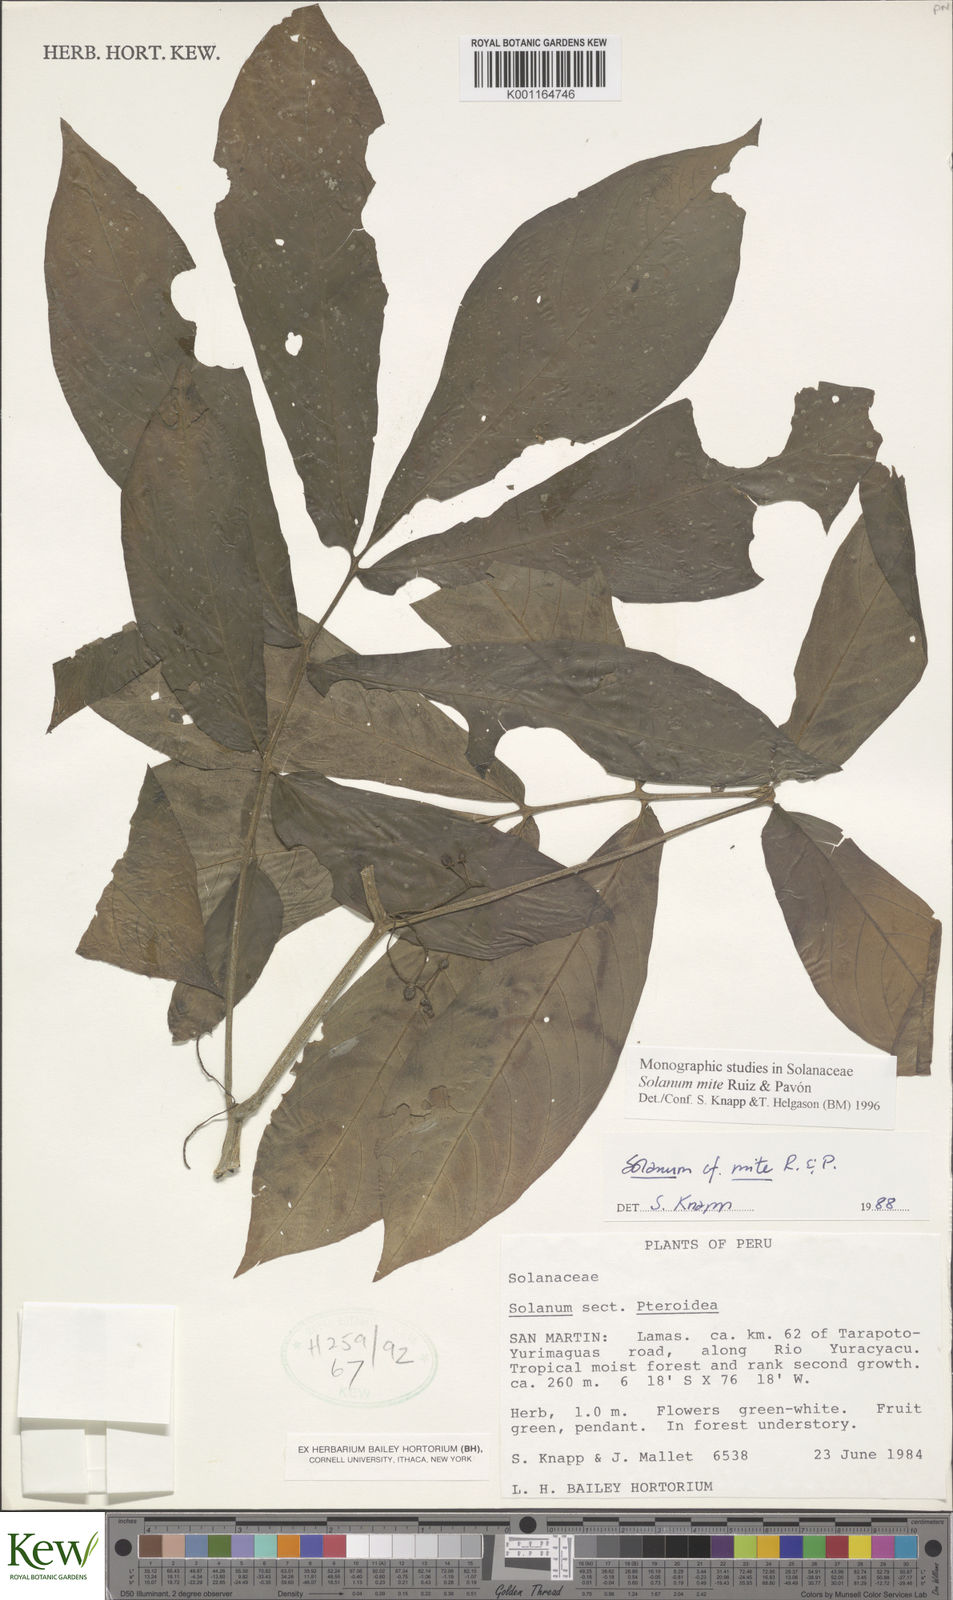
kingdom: Plantae
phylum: Tracheophyta
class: Magnoliopsida
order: Solanales
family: Solanaceae
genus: Solanum
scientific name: Solanum mite
